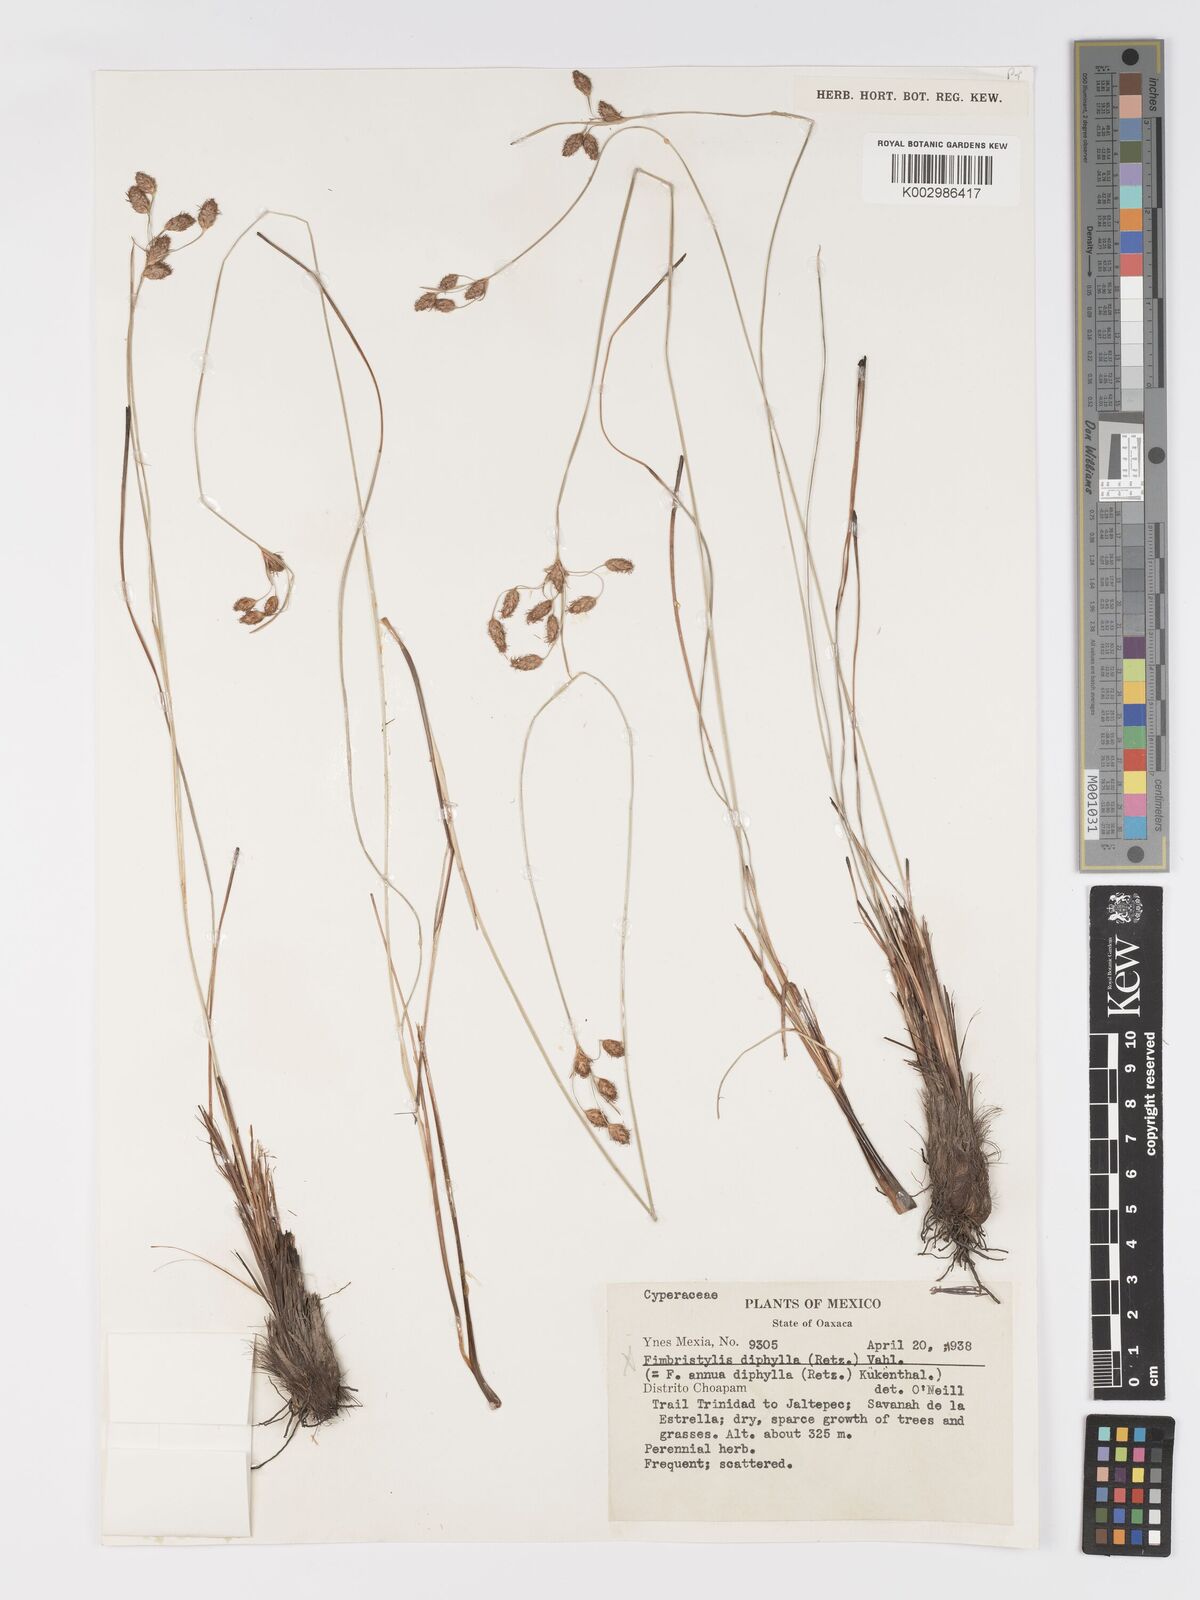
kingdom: Plantae
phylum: Tracheophyta
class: Liliopsida
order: Poales
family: Cyperaceae
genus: Fimbristylis
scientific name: Fimbristylis
